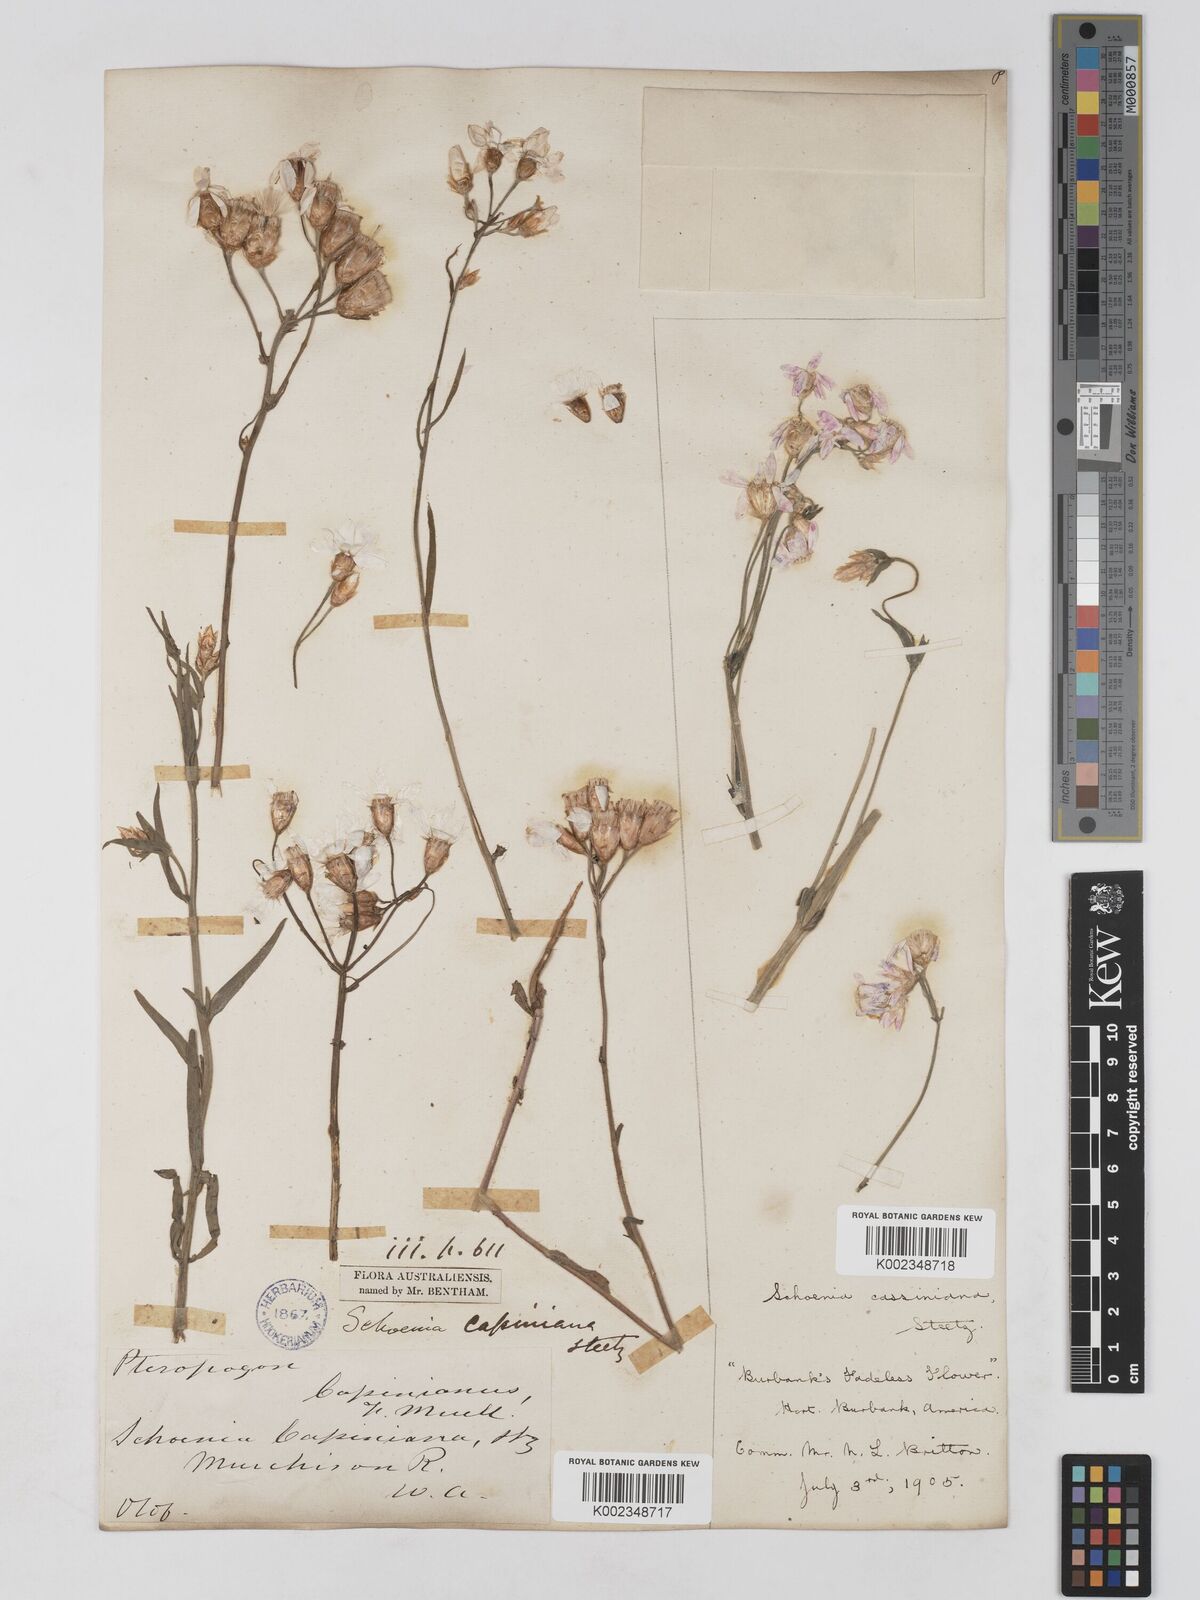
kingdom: Plantae
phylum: Tracheophyta
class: Magnoliopsida
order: Asterales
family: Asteraceae
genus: Schoenia
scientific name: Schoenia cassiniana
